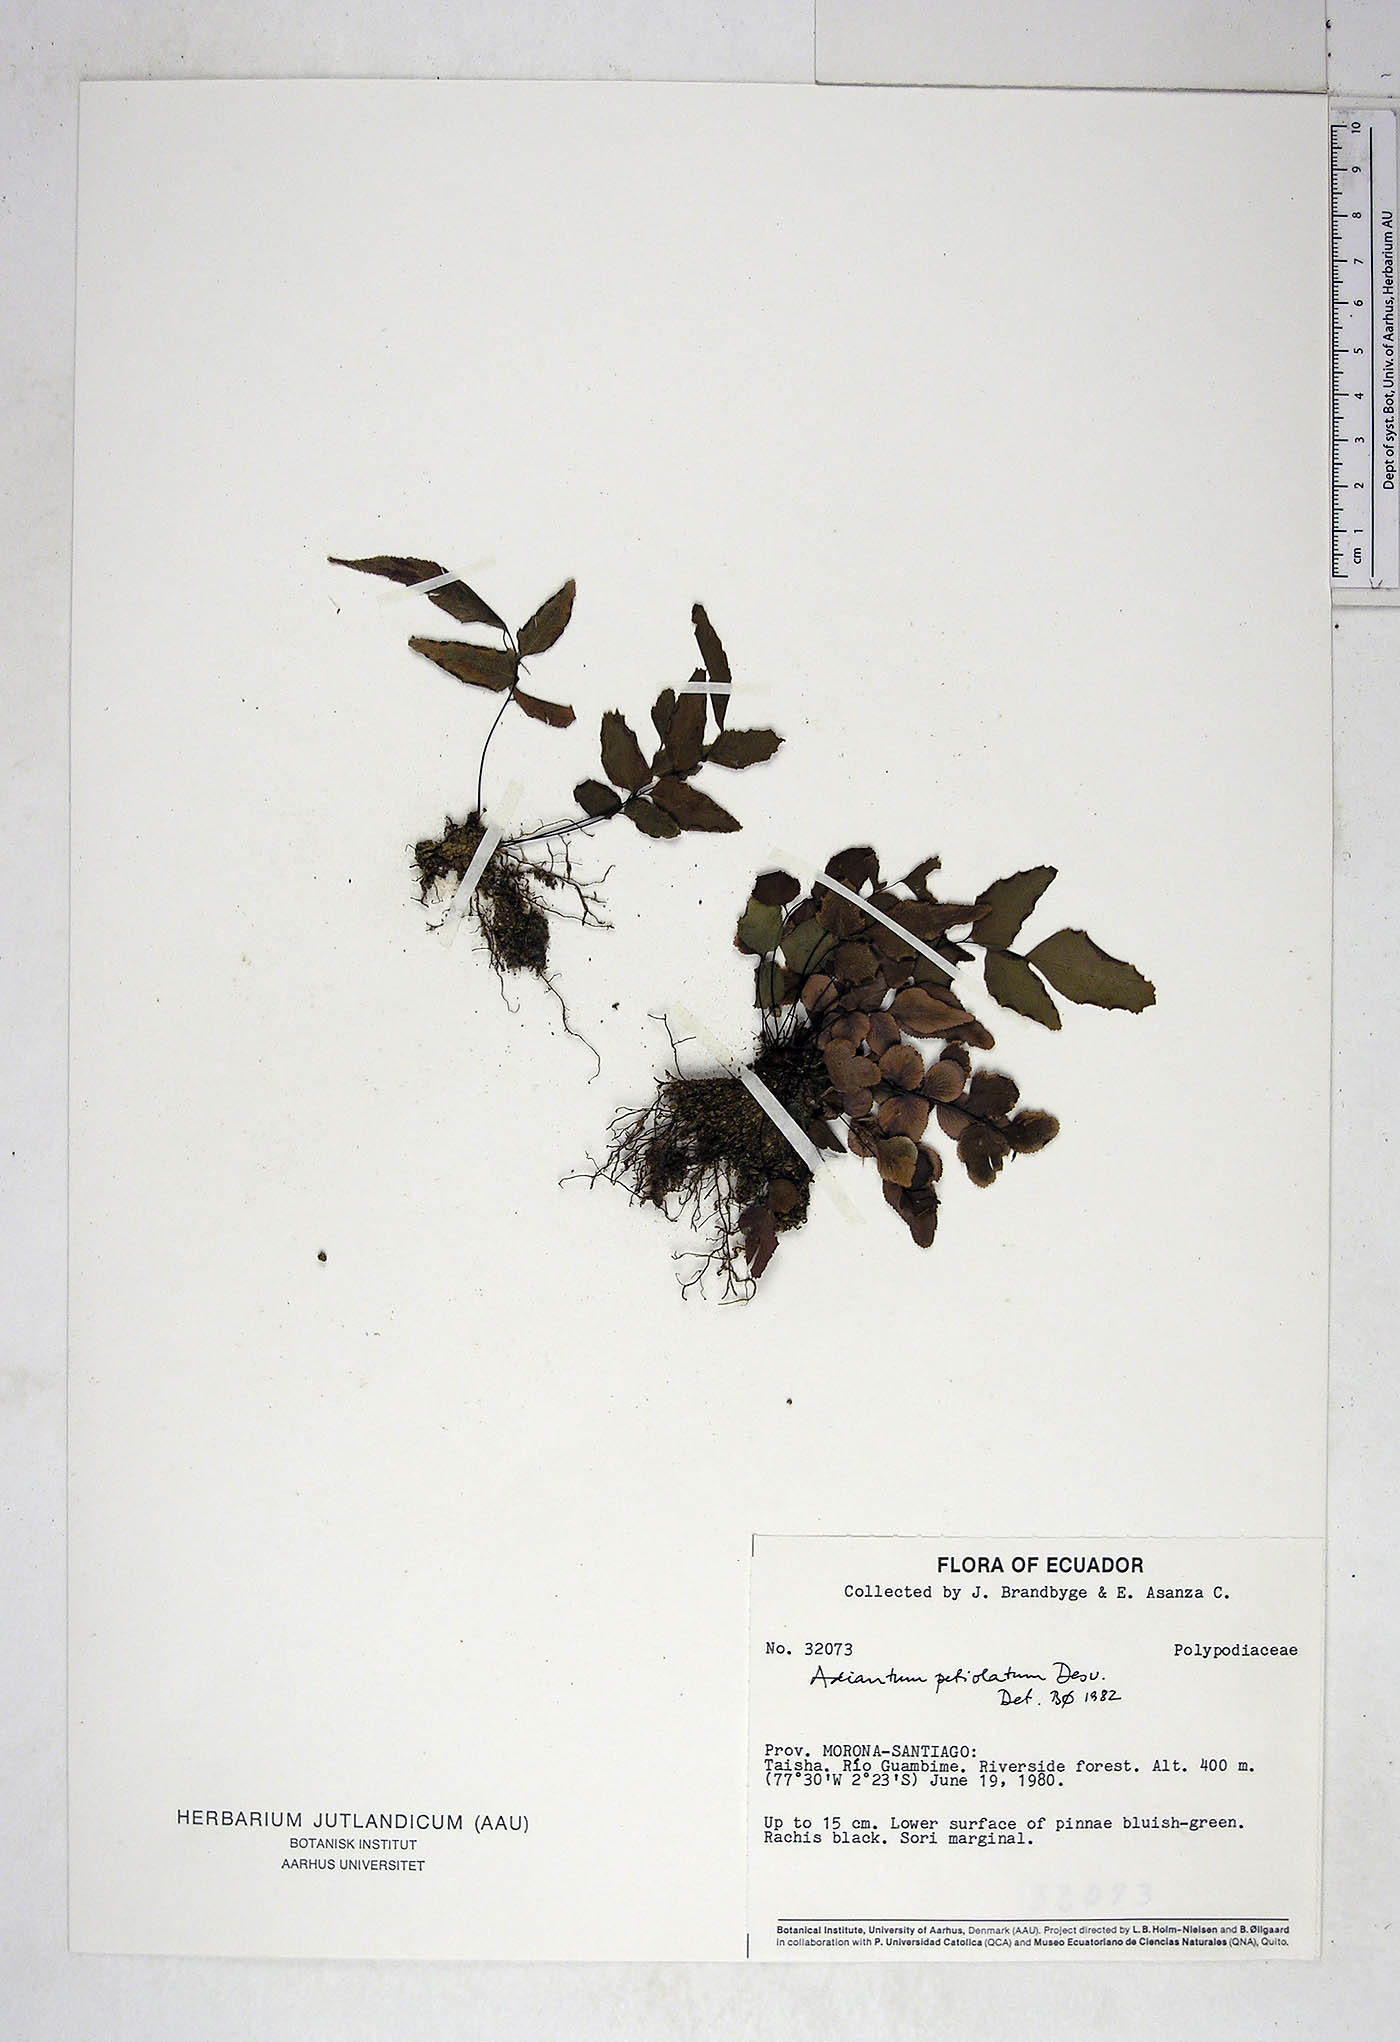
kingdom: Plantae
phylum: Tracheophyta
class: Polypodiopsida
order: Polypodiales
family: Pteridaceae
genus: Adiantum
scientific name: Adiantum petiolatum
